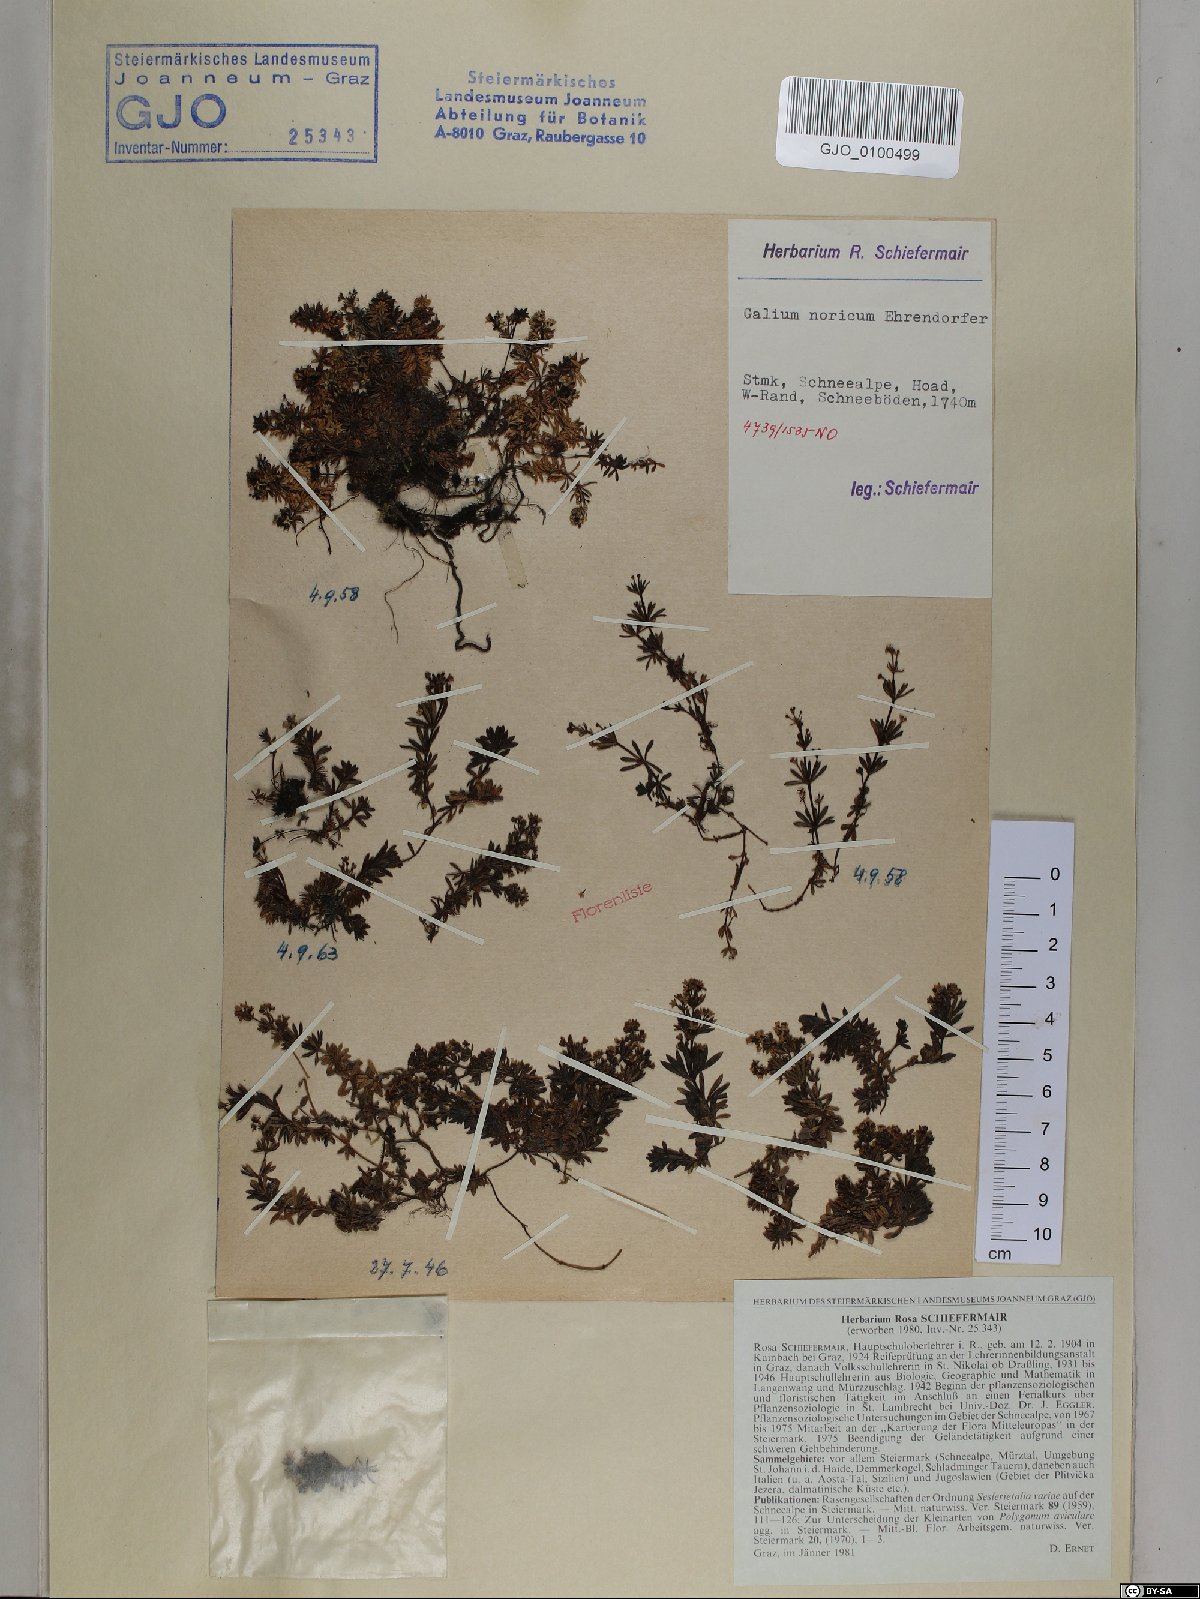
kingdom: Plantae
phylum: Tracheophyta
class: Magnoliopsida
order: Gentianales
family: Rubiaceae
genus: Galium
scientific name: Galium noricum
